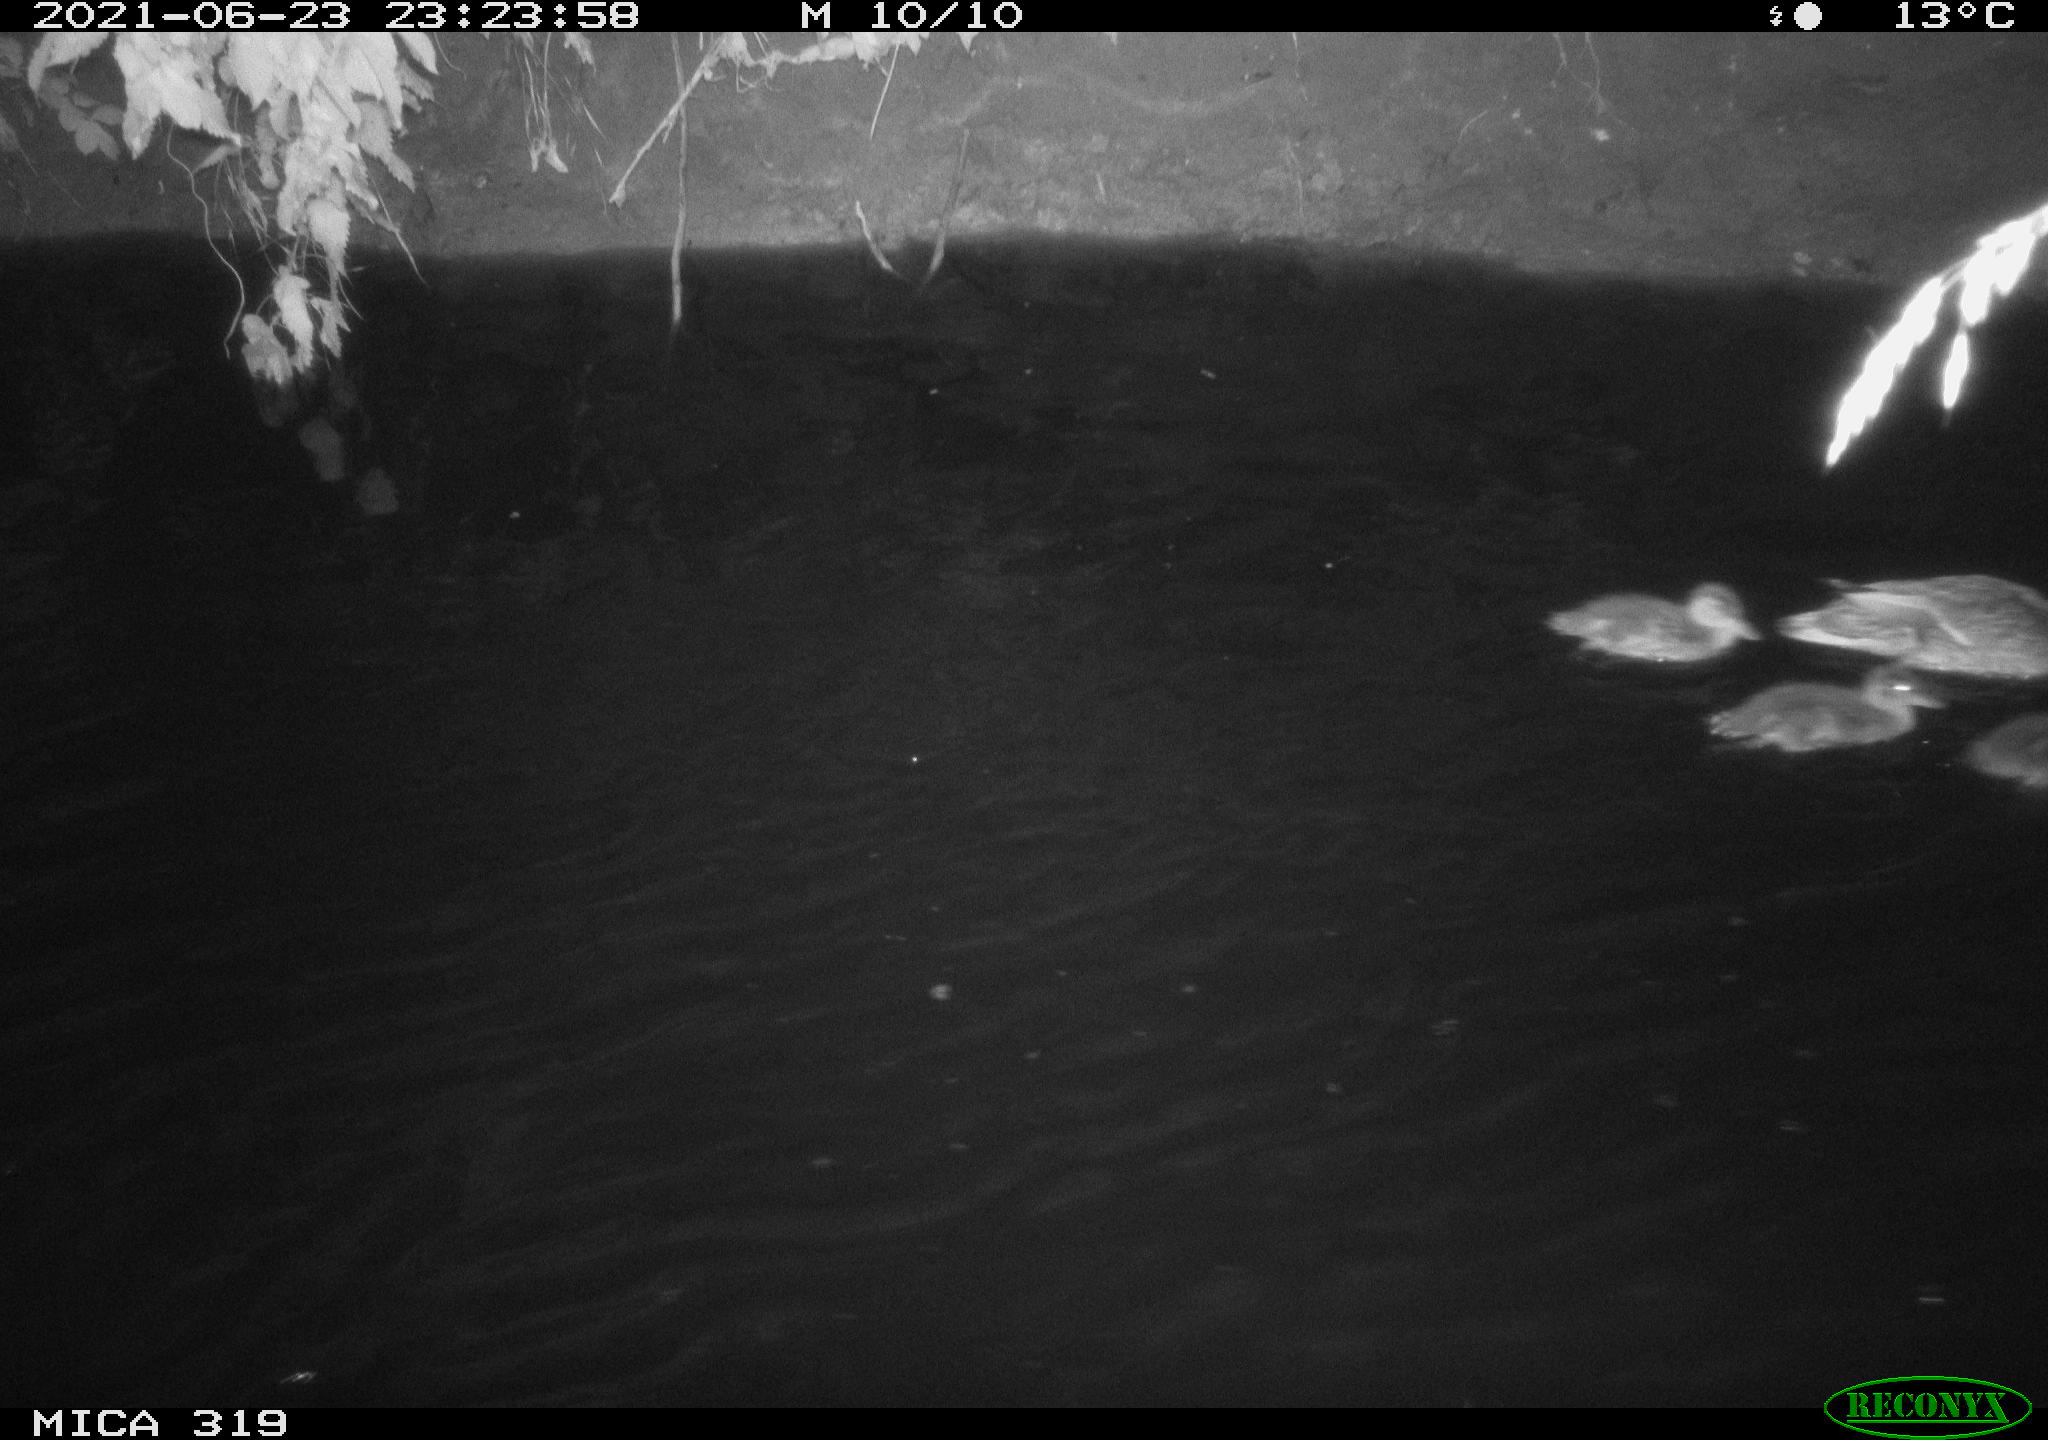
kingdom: Animalia
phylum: Chordata
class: Aves
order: Anseriformes
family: Anatidae
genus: Anas
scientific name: Anas platyrhynchos
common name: Mallard
